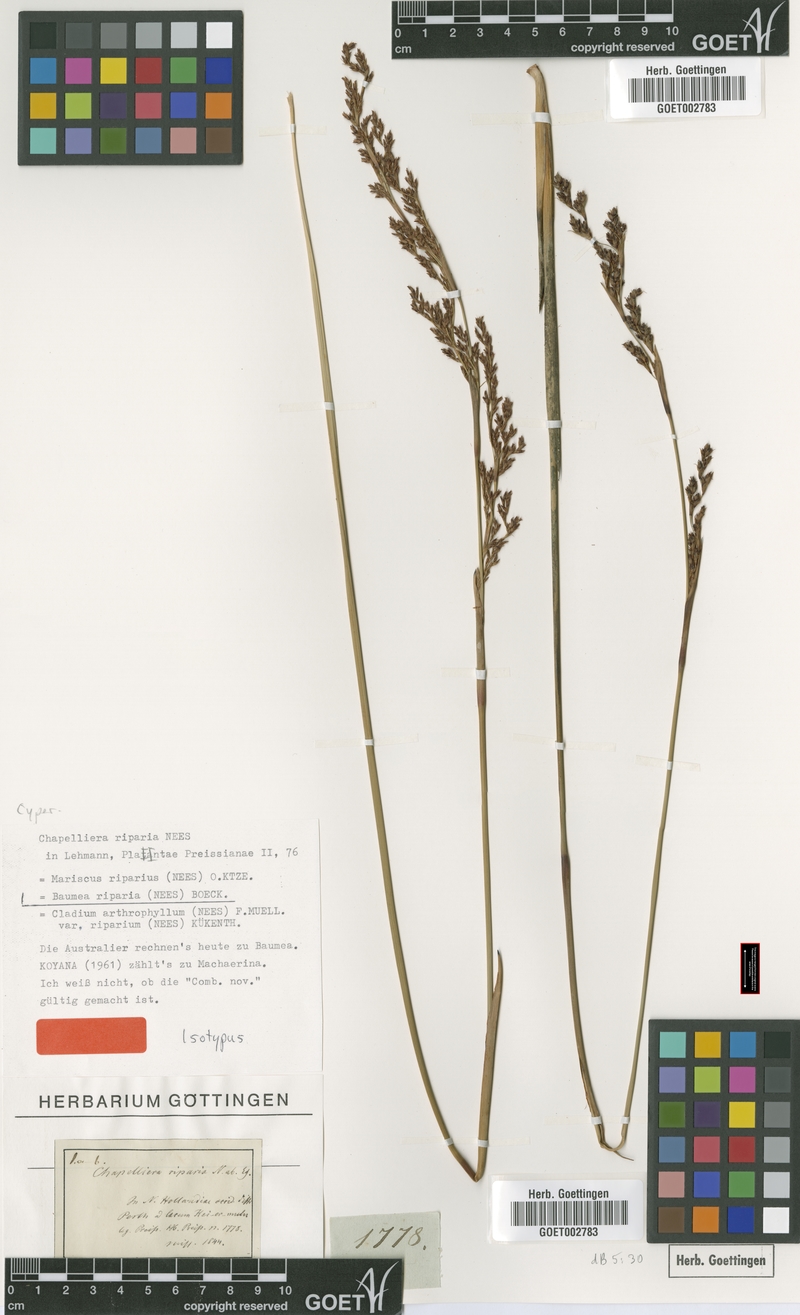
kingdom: Plantae
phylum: Tracheophyta
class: Liliopsida
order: Poales
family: Cyperaceae
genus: Machaerina
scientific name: Machaerina rubiginosa
